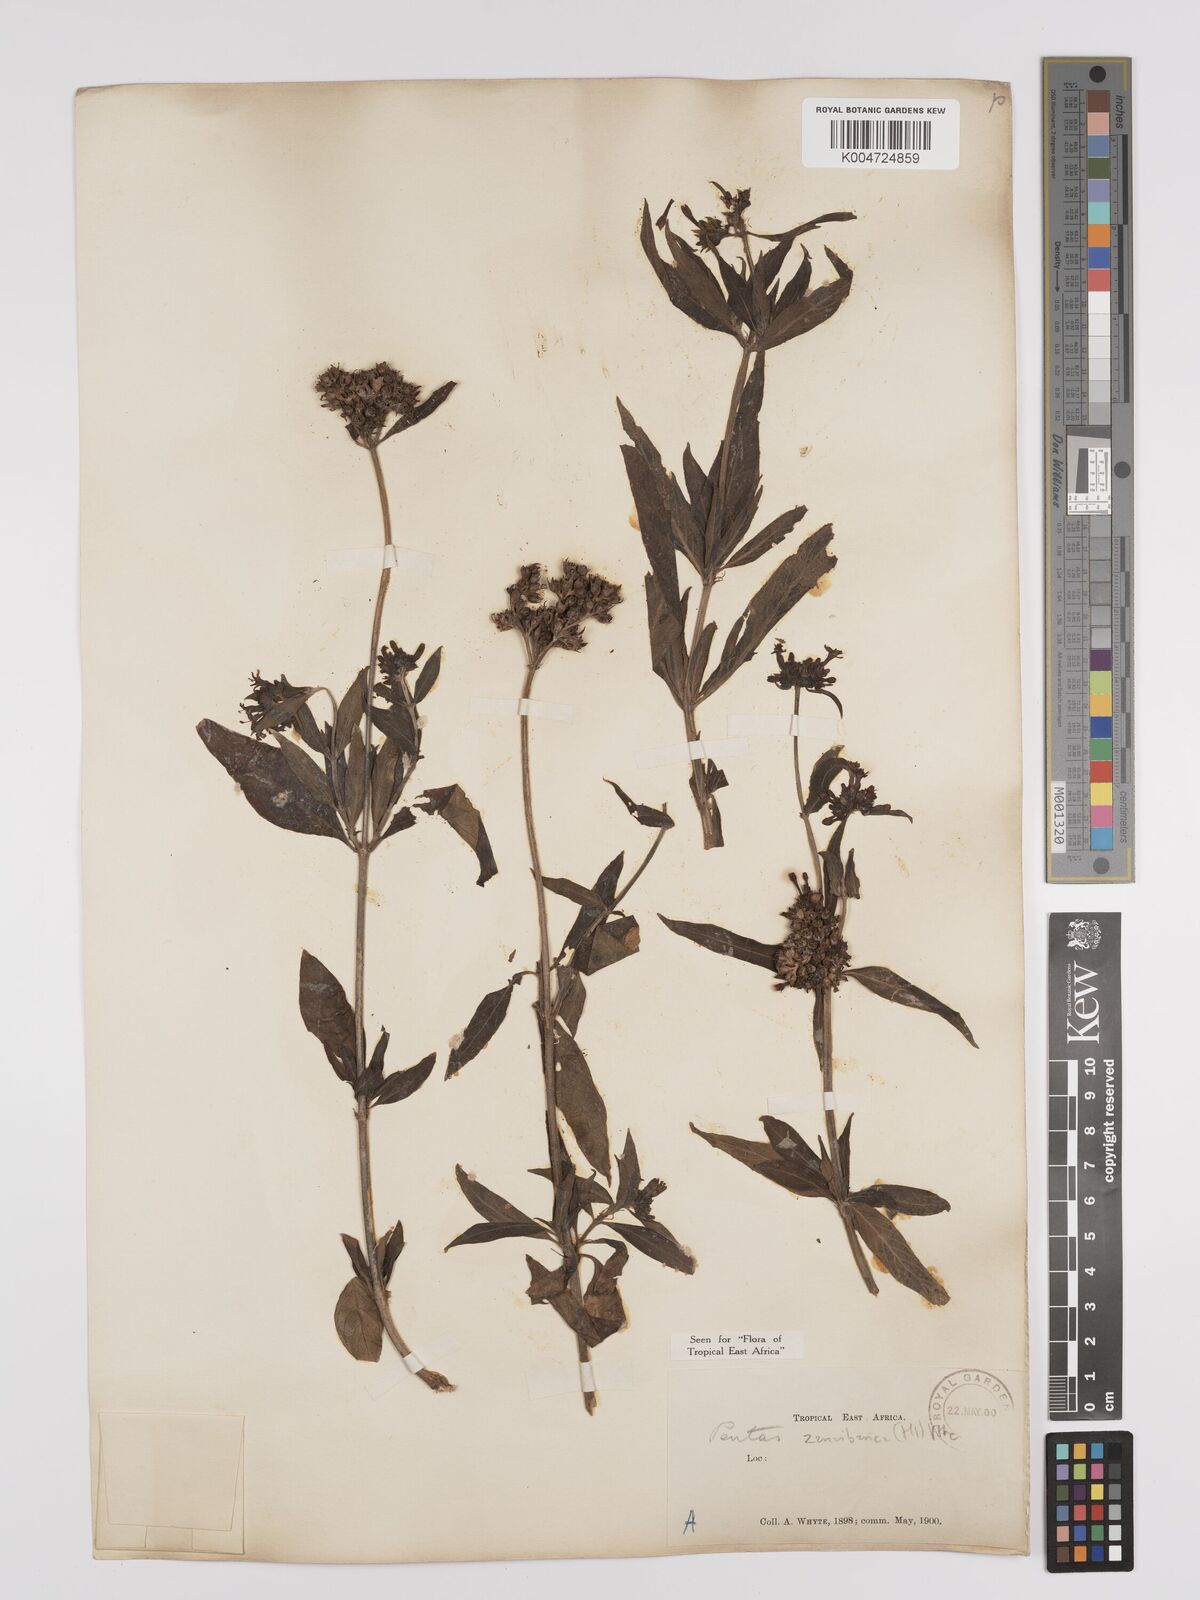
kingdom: Plantae
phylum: Tracheophyta
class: Magnoliopsida
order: Gentianales
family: Rubiaceae
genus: Pentas
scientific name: Pentas zanzibarica
